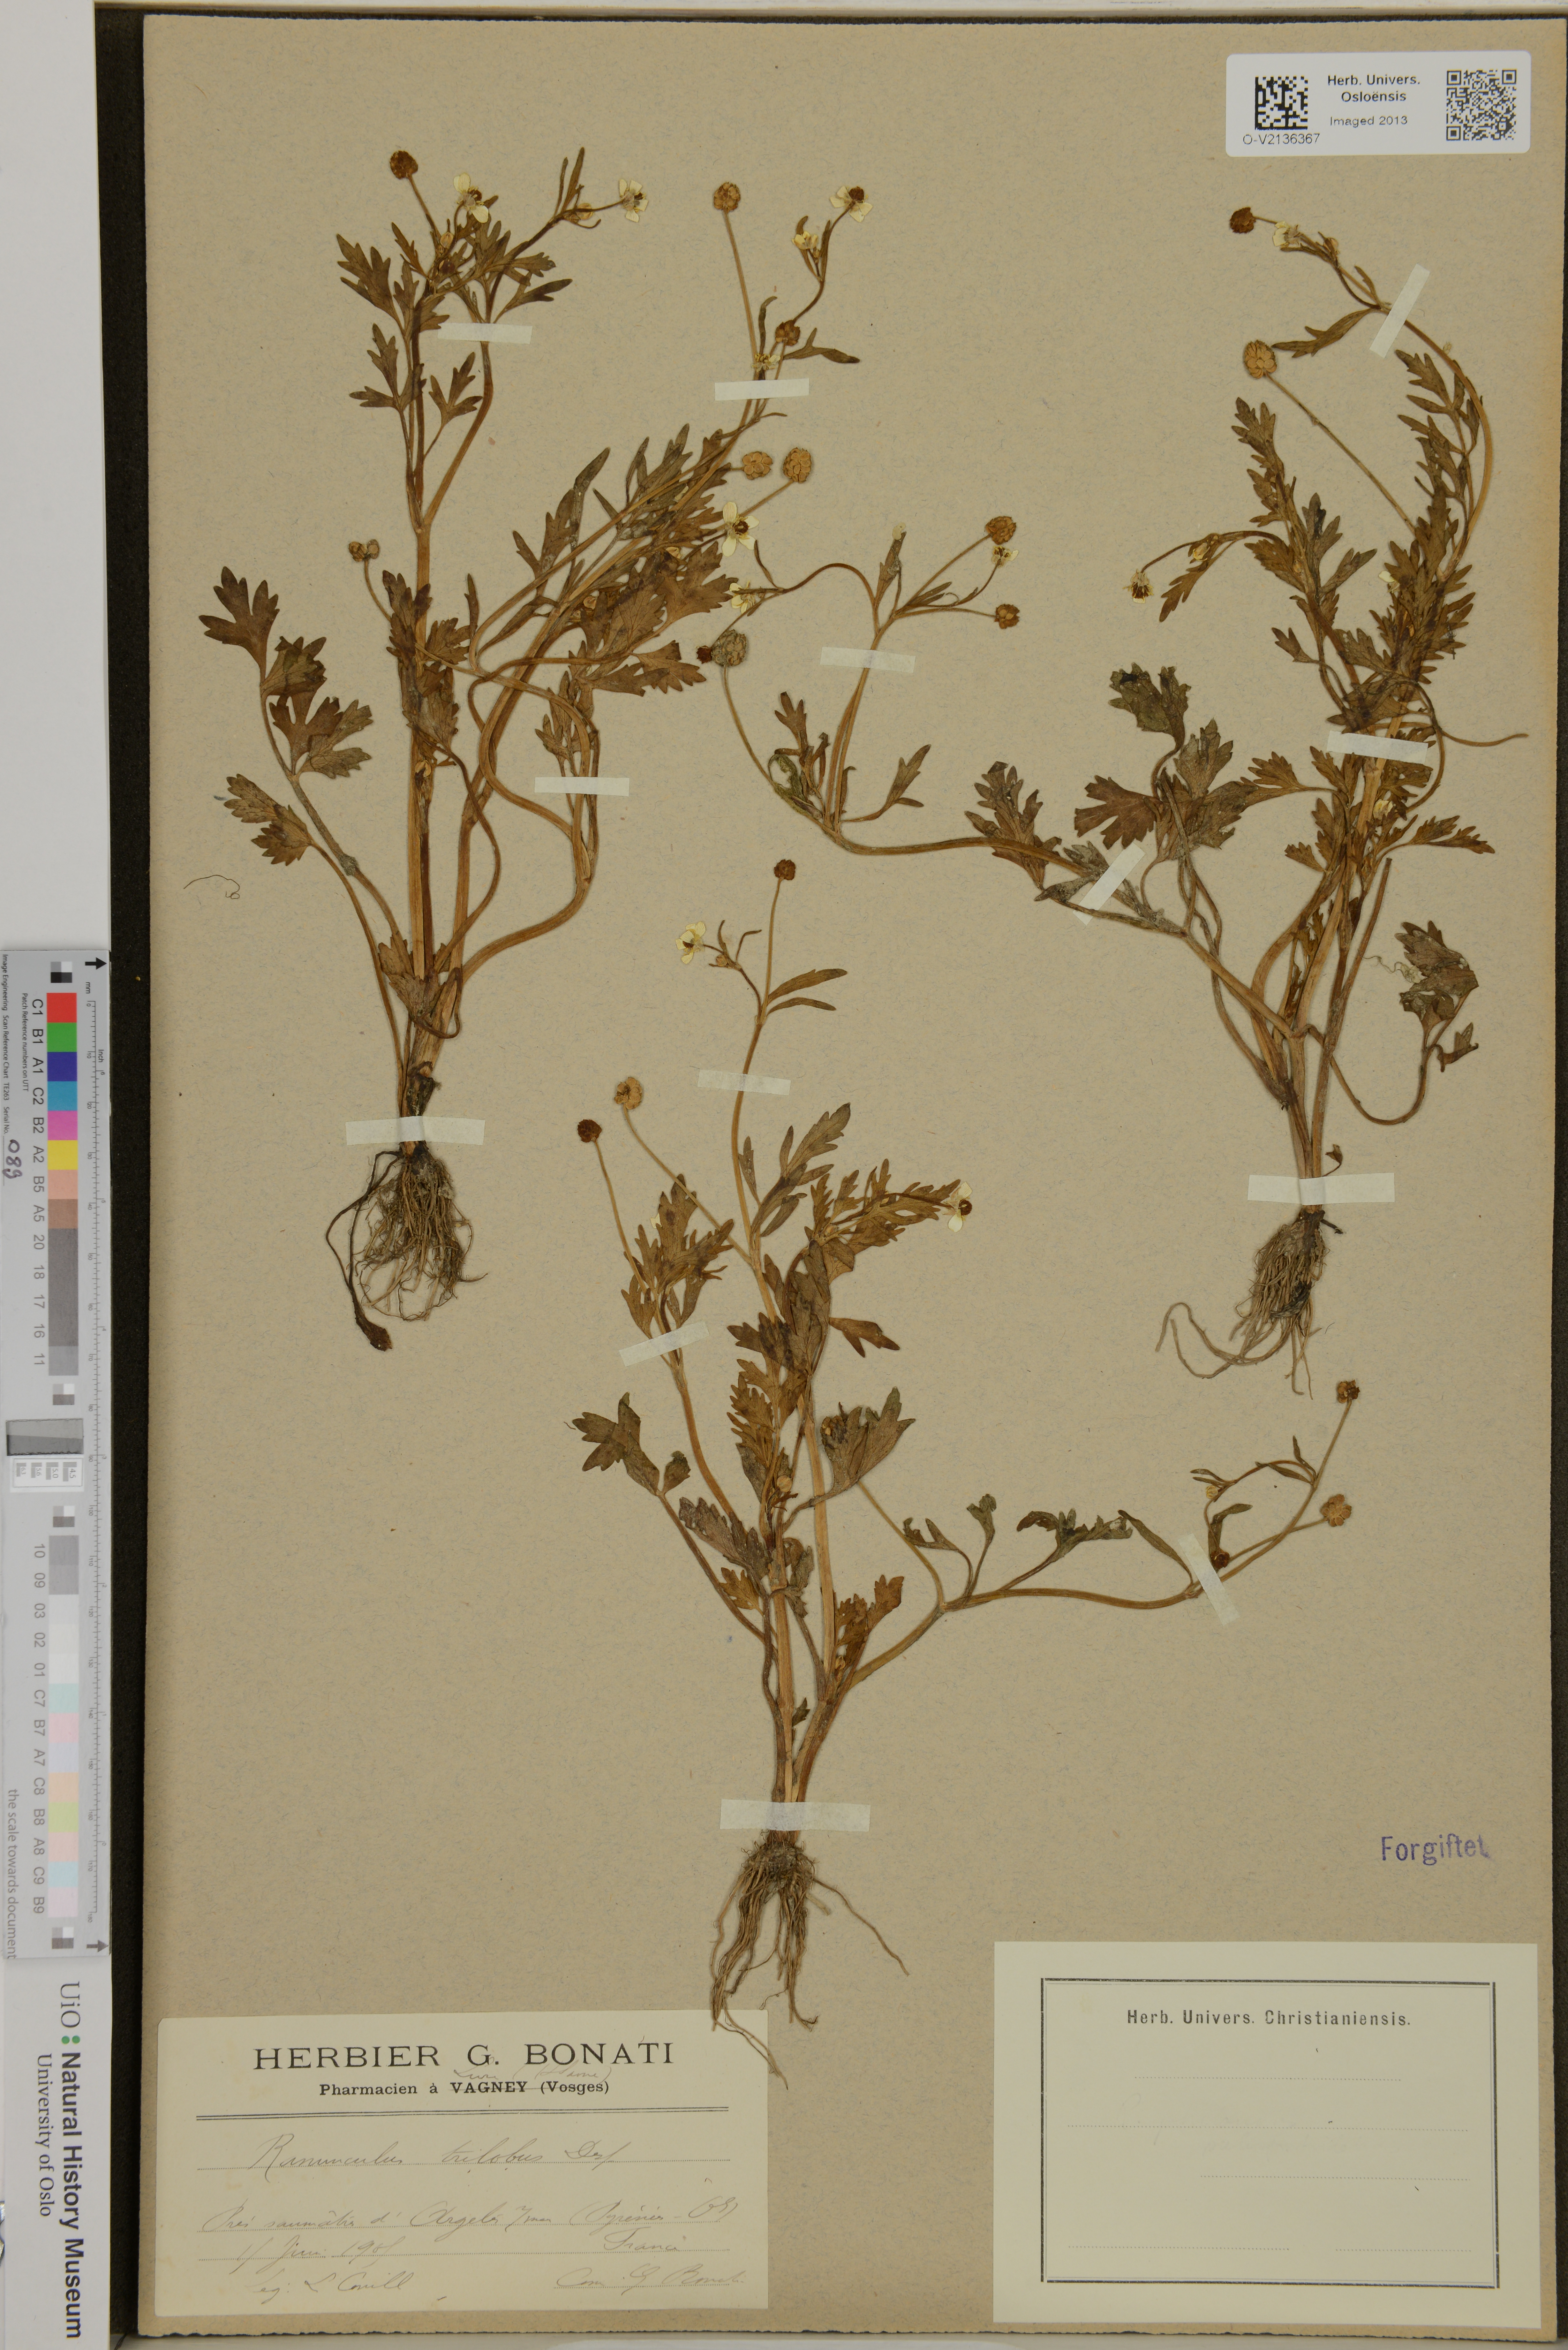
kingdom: Plantae
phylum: Tracheophyta
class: Magnoliopsida
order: Ranunculales
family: Ranunculaceae
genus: Ranunculus
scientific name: Ranunculus trilobus
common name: Threelobe buttercup
